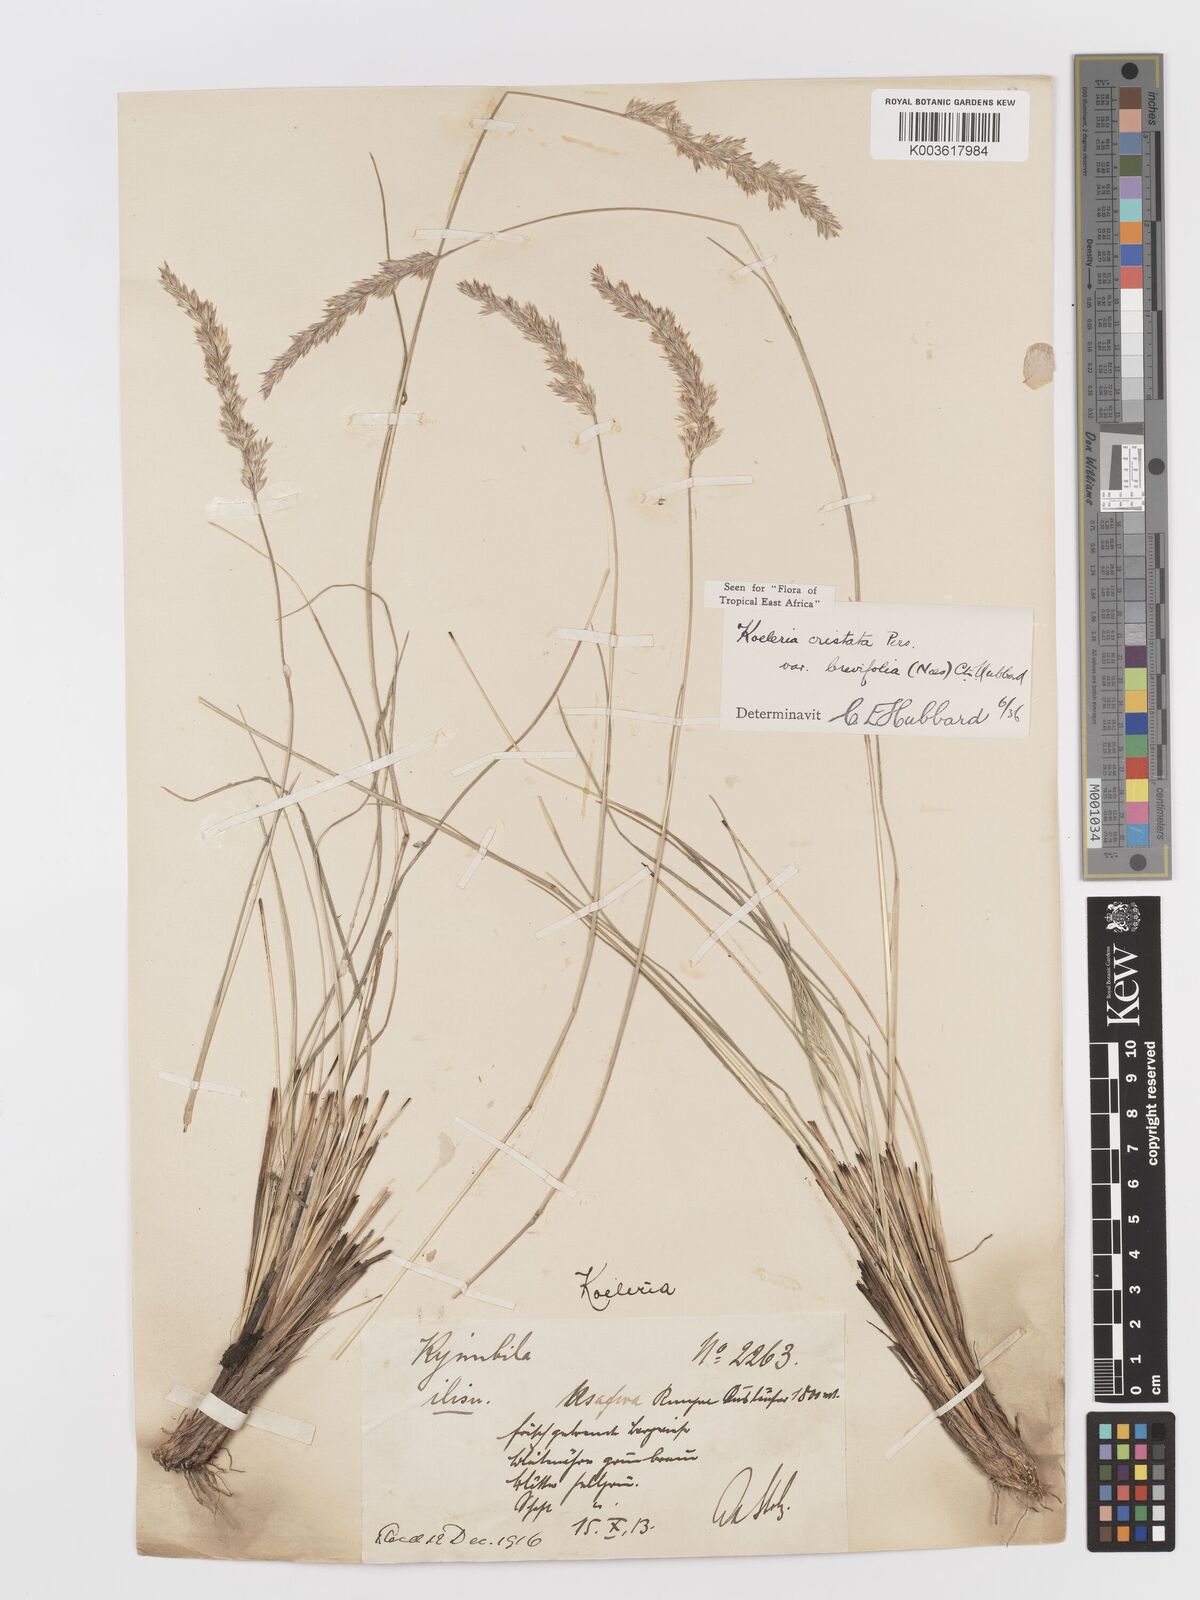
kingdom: Plantae
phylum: Tracheophyta
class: Liliopsida
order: Poales
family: Poaceae
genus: Koeleria
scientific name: Koeleria capensis
